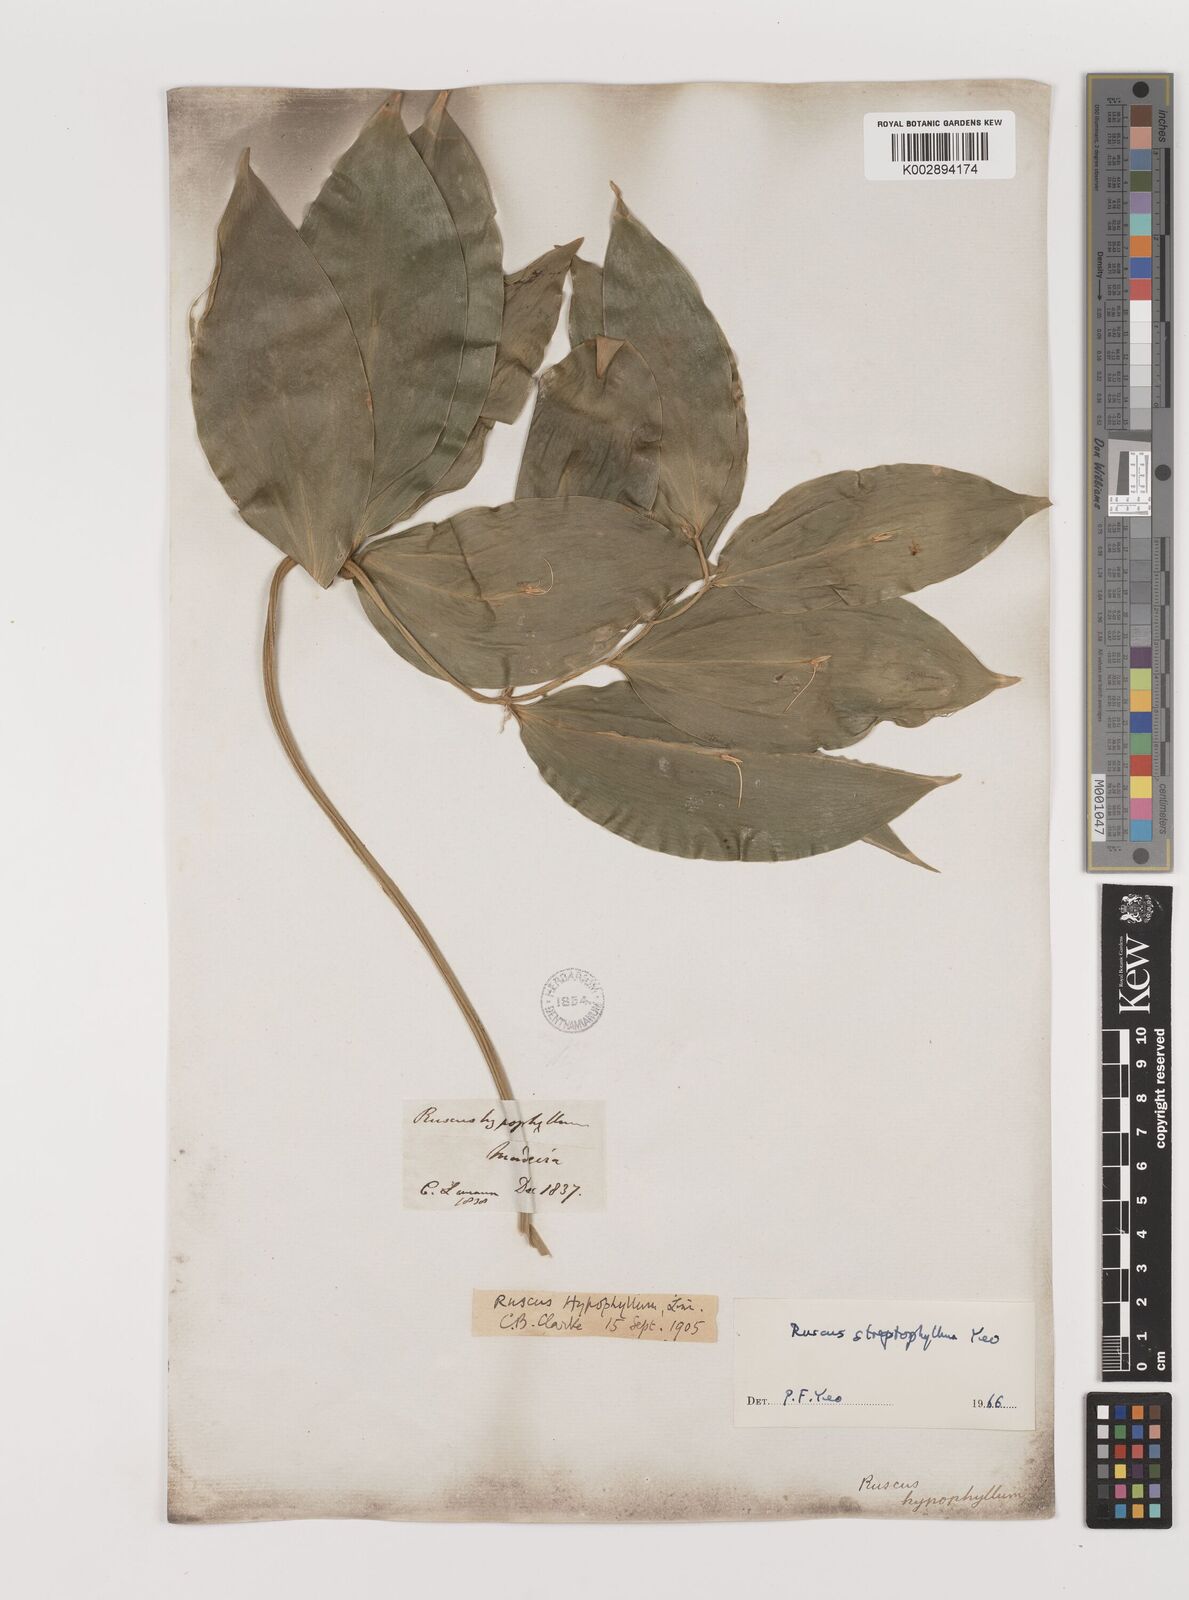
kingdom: Plantae
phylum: Tracheophyta
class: Liliopsida
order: Asparagales
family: Asparagaceae
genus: Ruscus
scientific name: Ruscus hypophyllum
